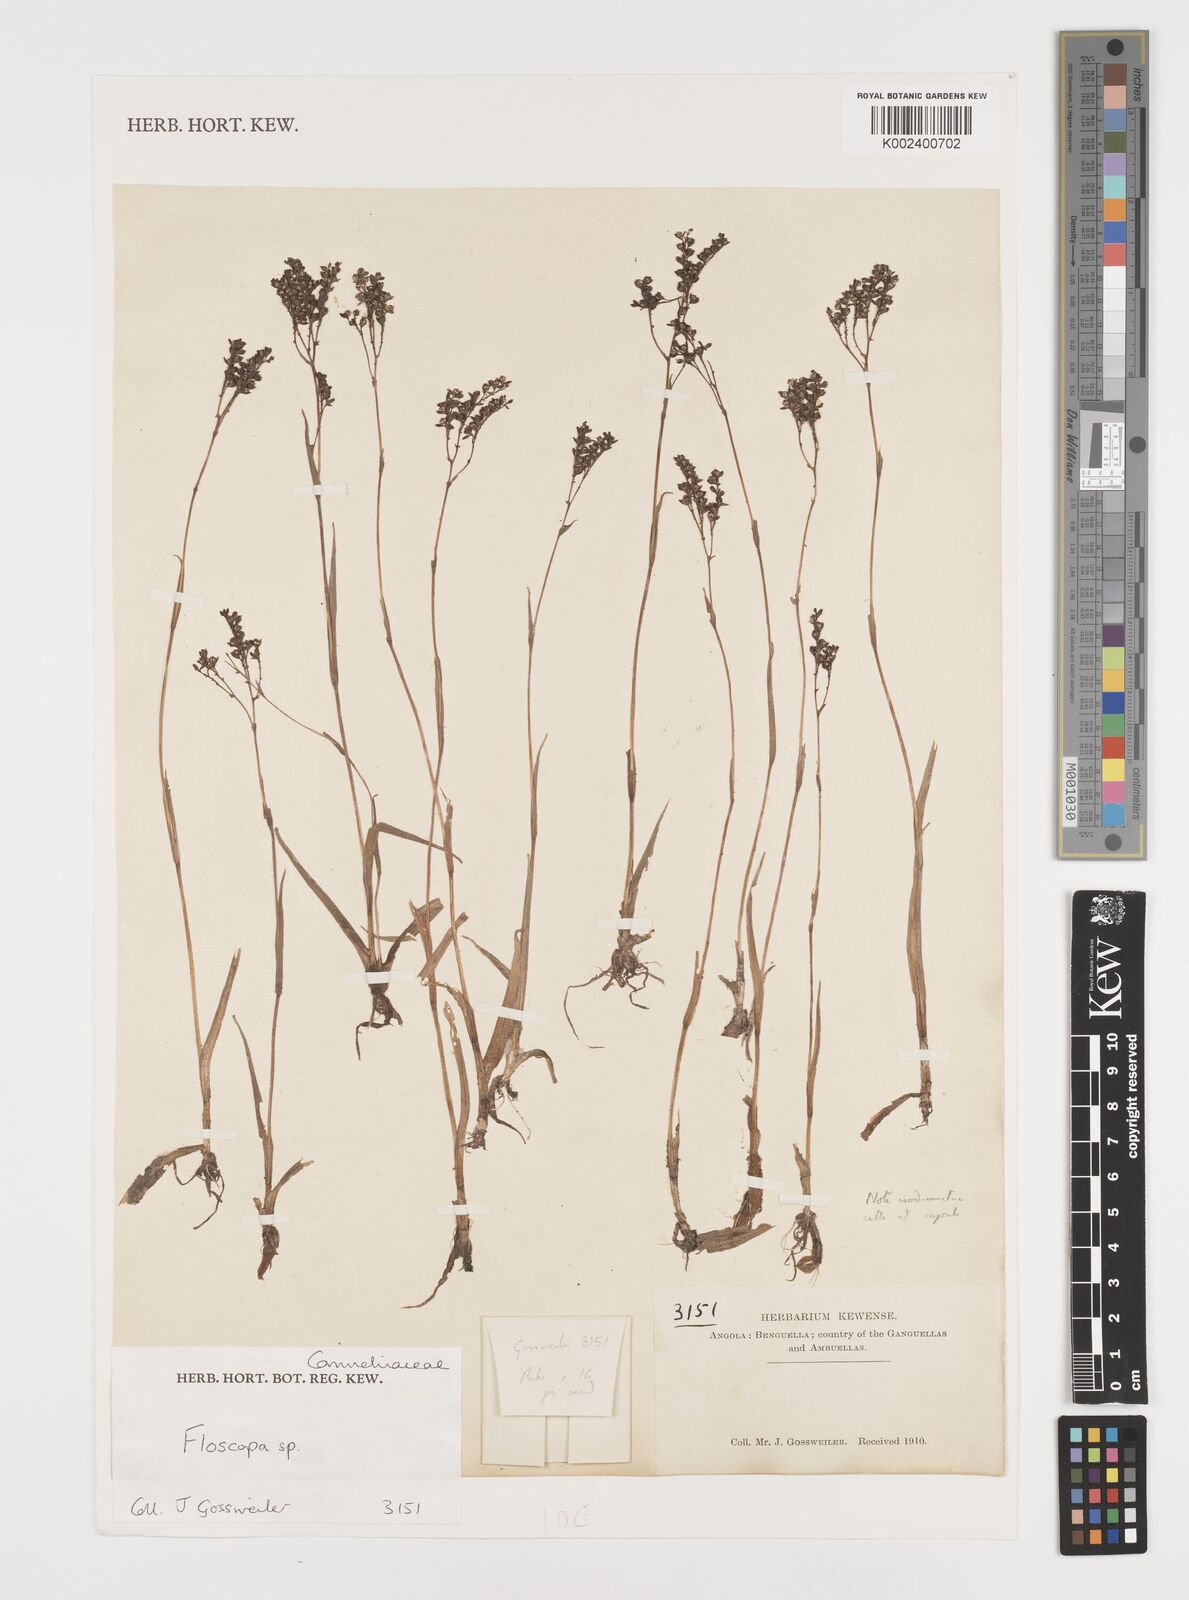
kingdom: Plantae
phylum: Tracheophyta
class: Liliopsida
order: Commelinales
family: Commelinaceae
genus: Floscopa
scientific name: Floscopa
